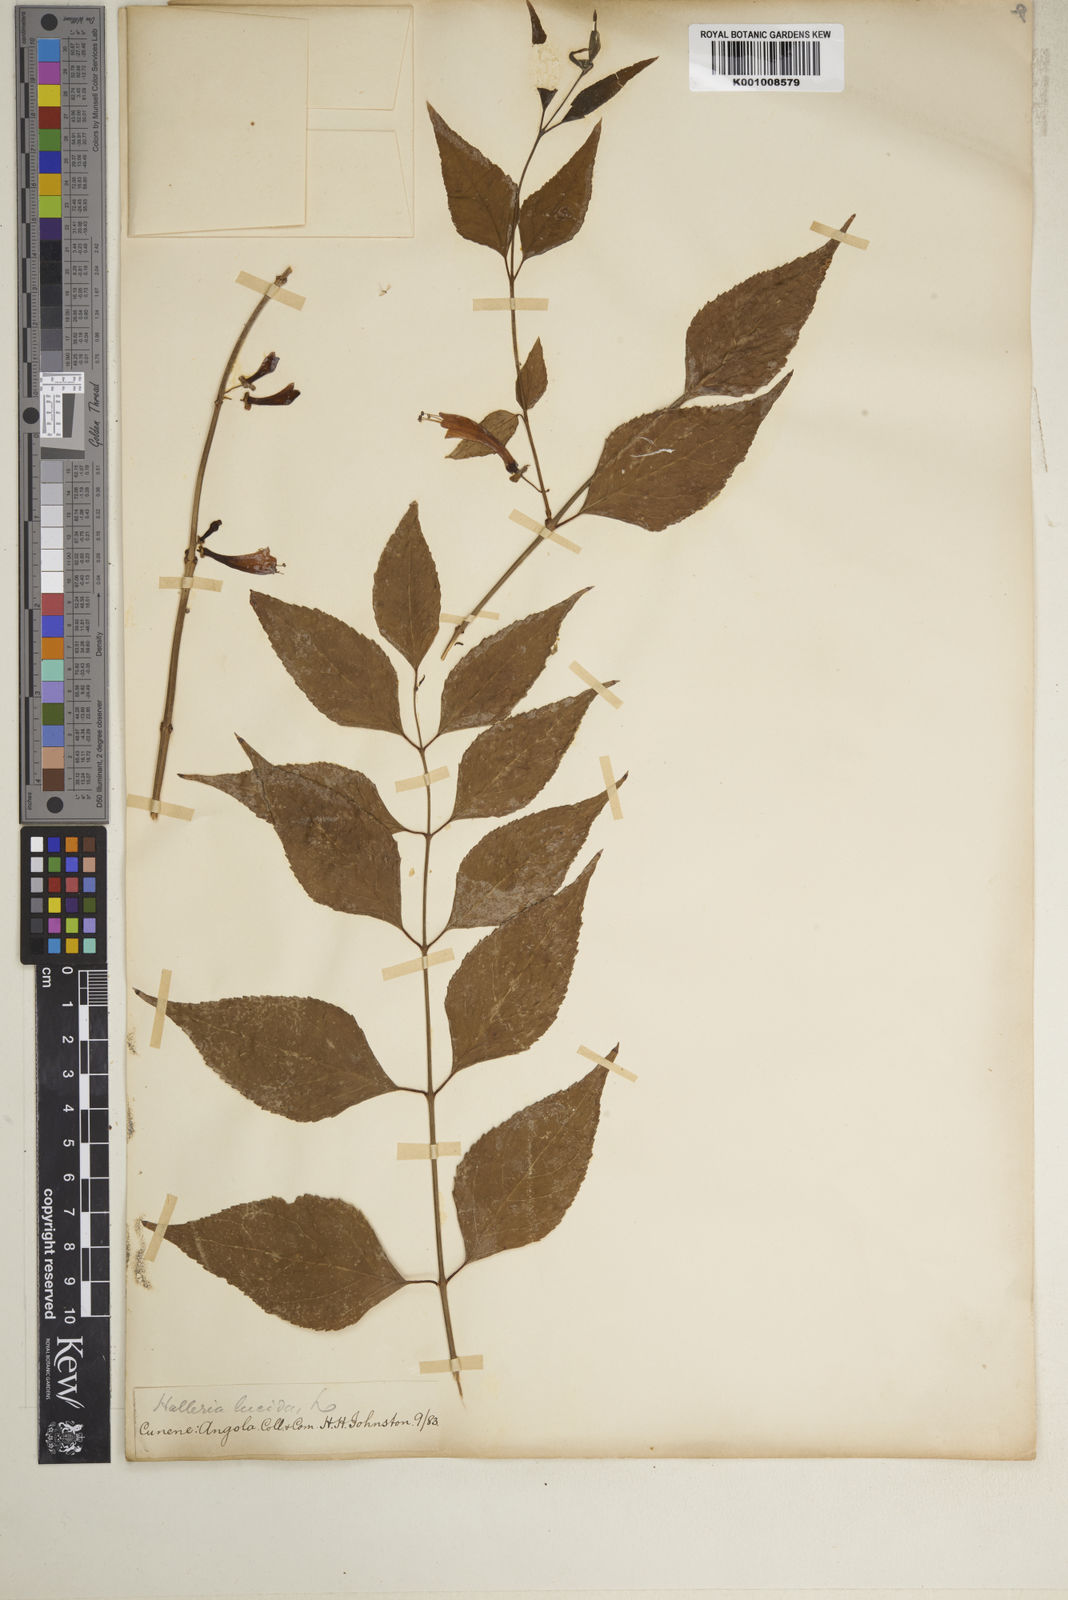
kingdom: Plantae
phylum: Tracheophyta
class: Magnoliopsida
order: Lamiales
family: Stilbaceae
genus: Nuxia
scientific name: Nuxia
